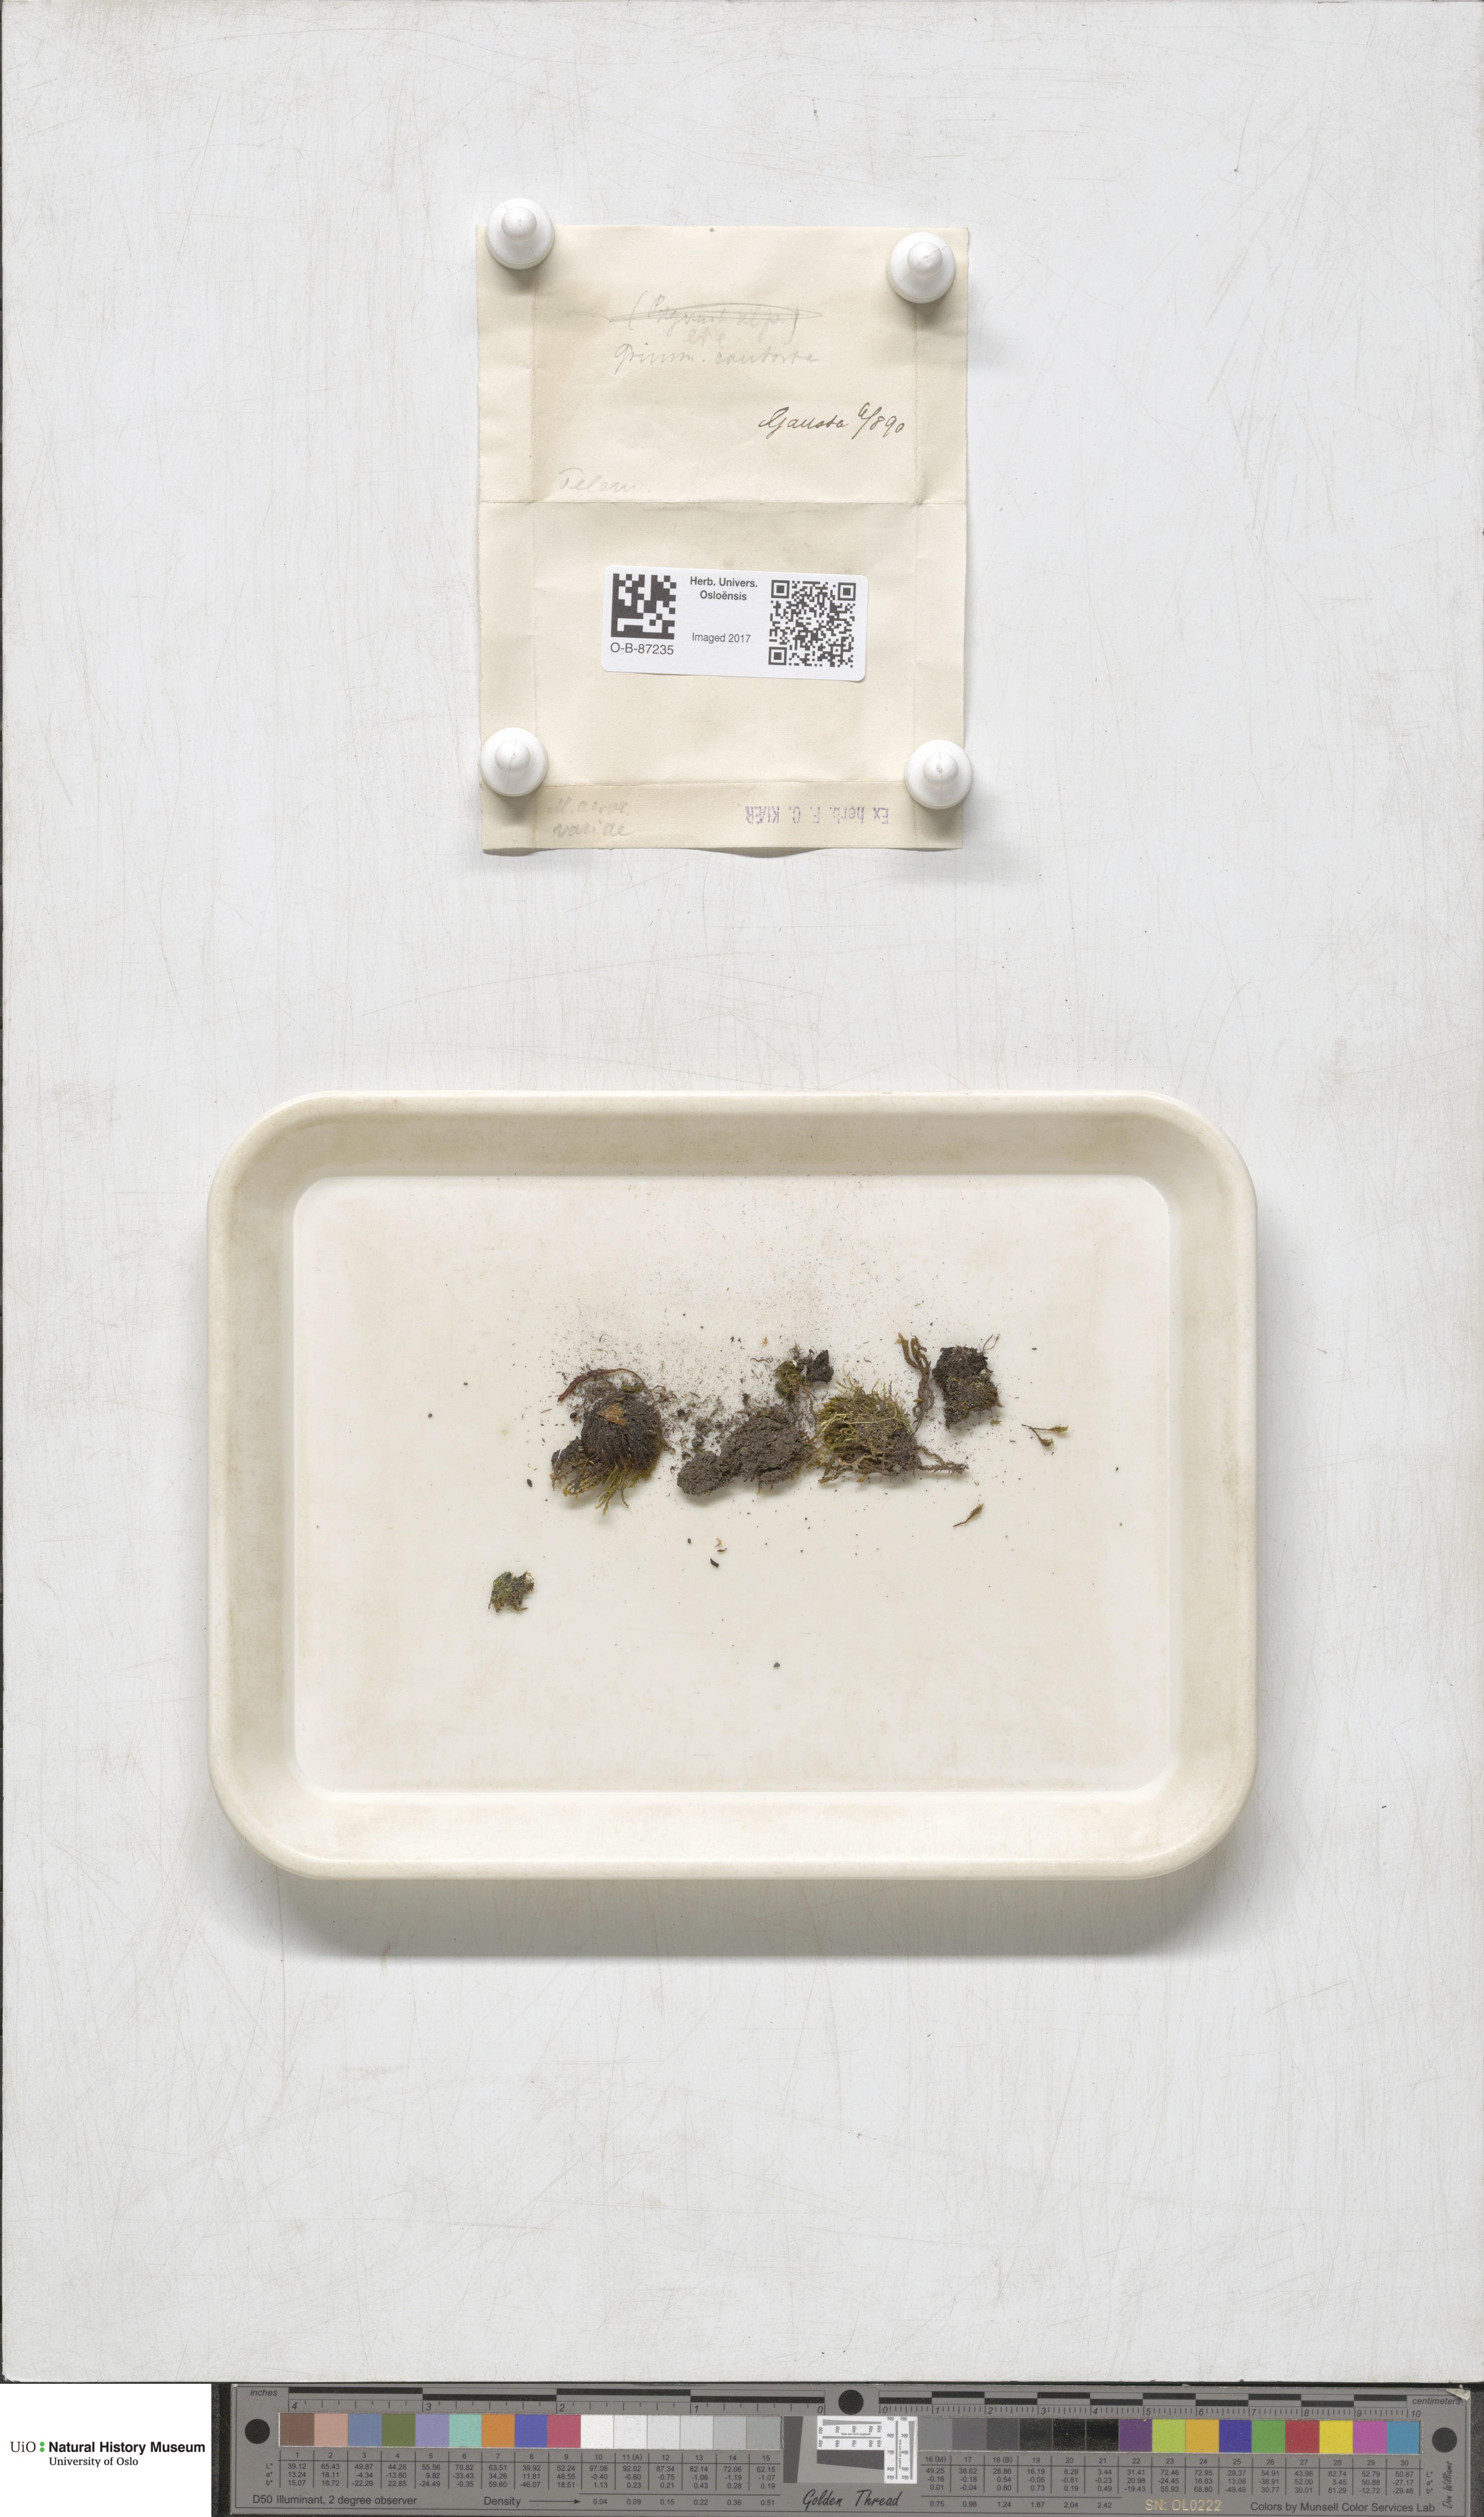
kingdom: Plantae
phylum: Bryophyta
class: Bryopsida
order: Grimmiales
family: Grimmiaceae
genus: Grimmia
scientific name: Grimmia incurva
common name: Black grimmia
